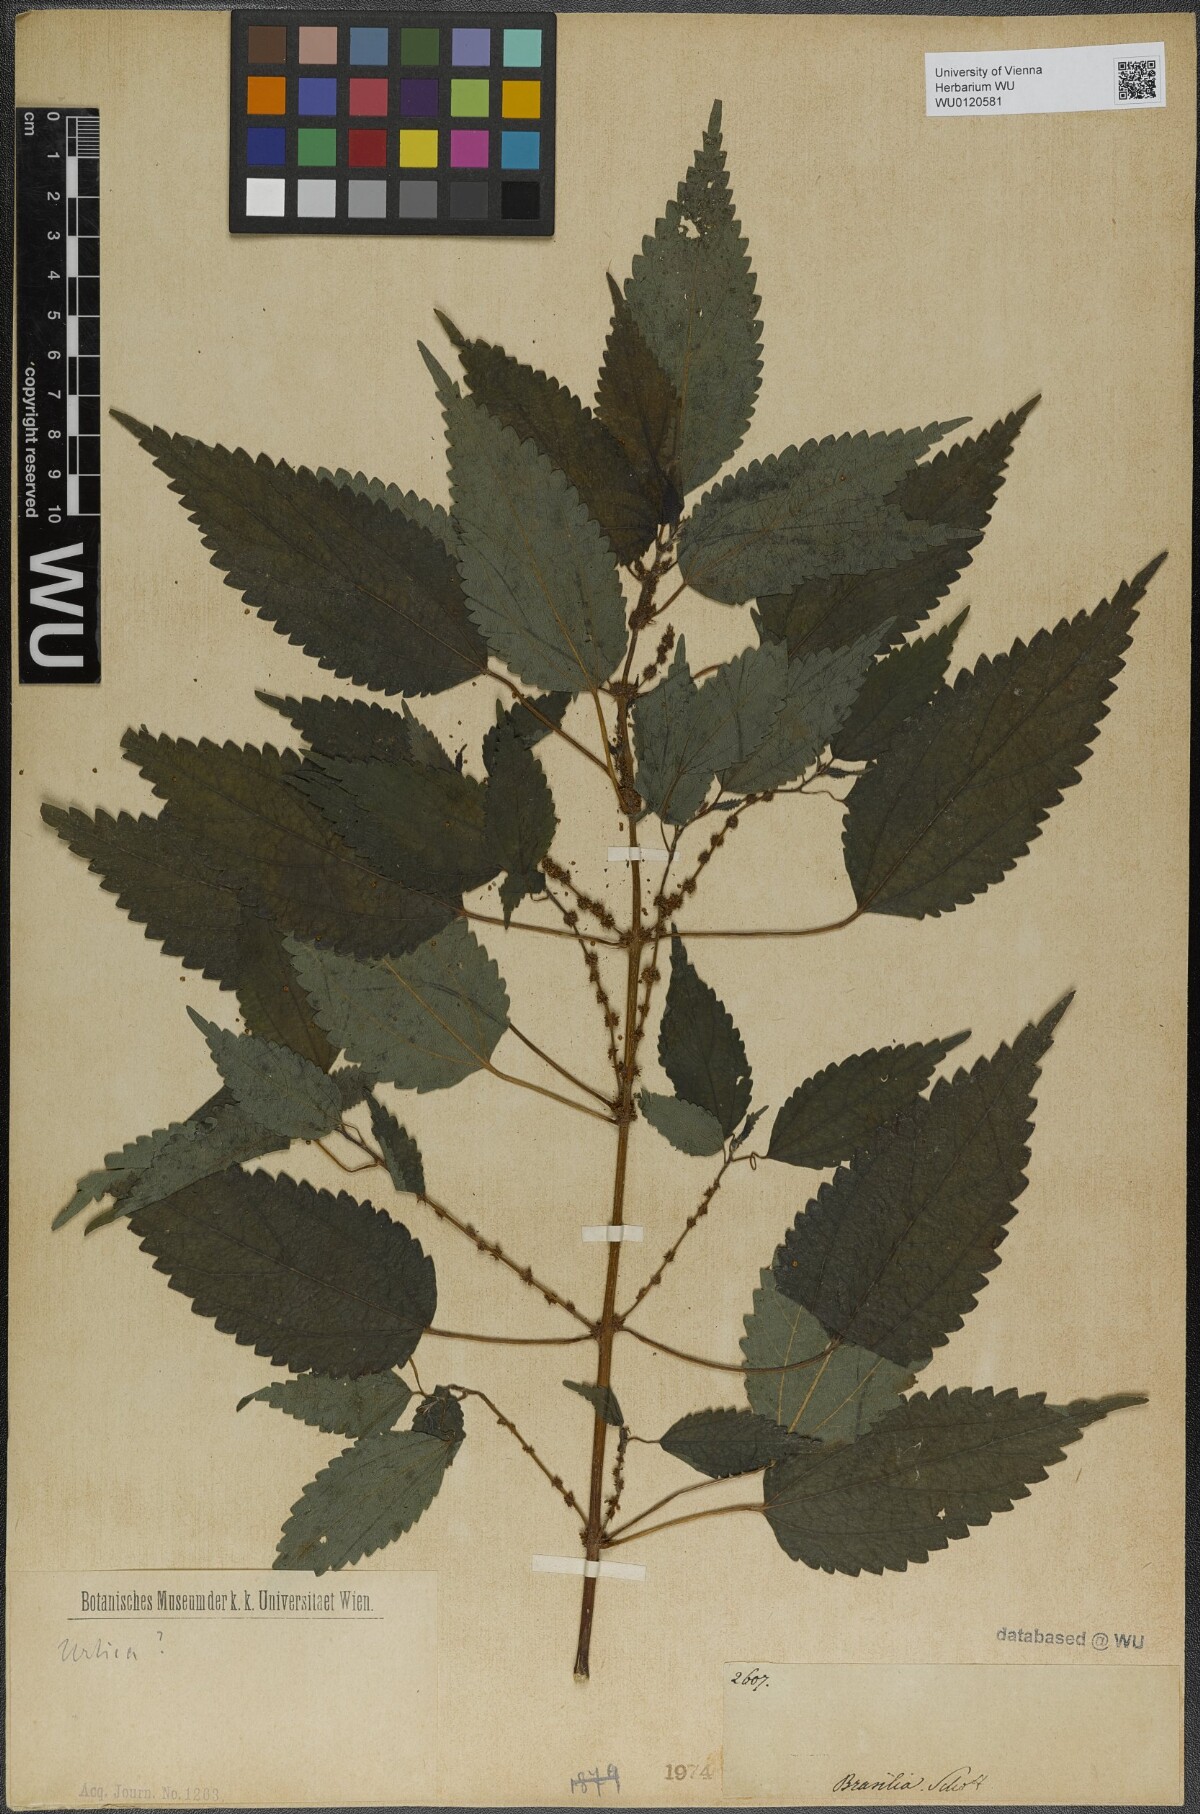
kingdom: Plantae
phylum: Tracheophyta
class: Magnoliopsida
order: Rosales
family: Urticaceae
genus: Urtica
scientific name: Urtica
